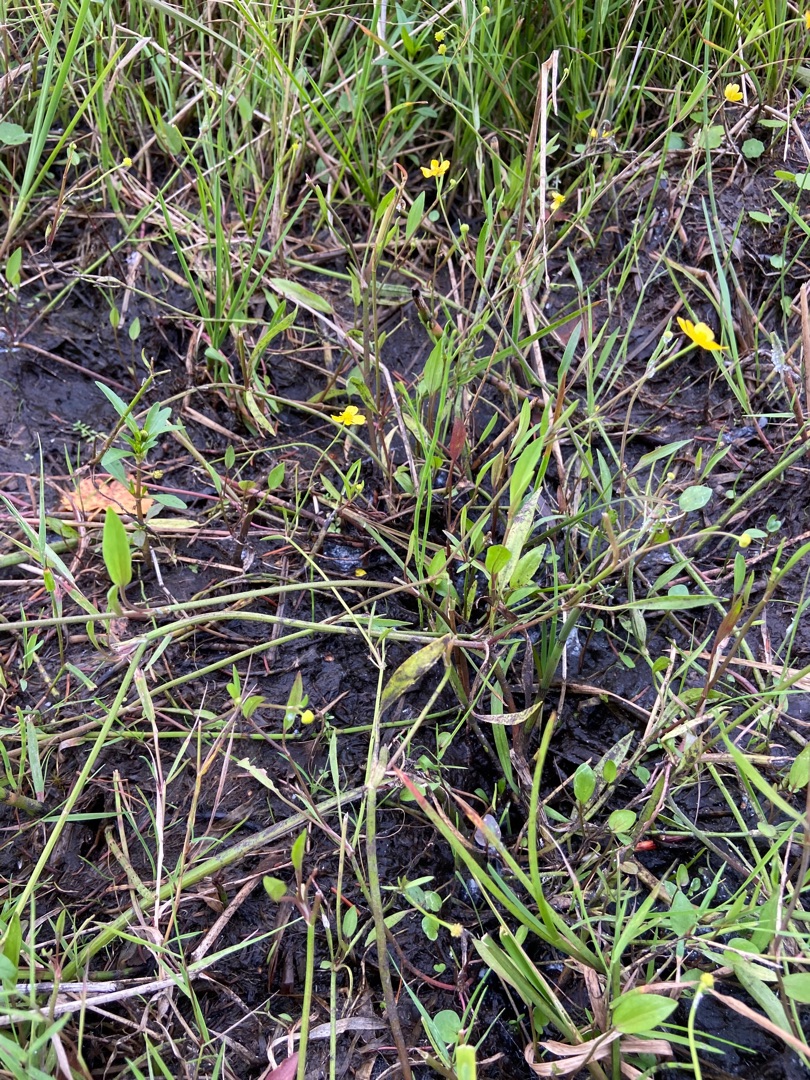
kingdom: Plantae
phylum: Tracheophyta
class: Magnoliopsida
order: Ranunculales
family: Ranunculaceae
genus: Ranunculus
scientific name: Ranunculus flammula
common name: Kær-ranunkel
